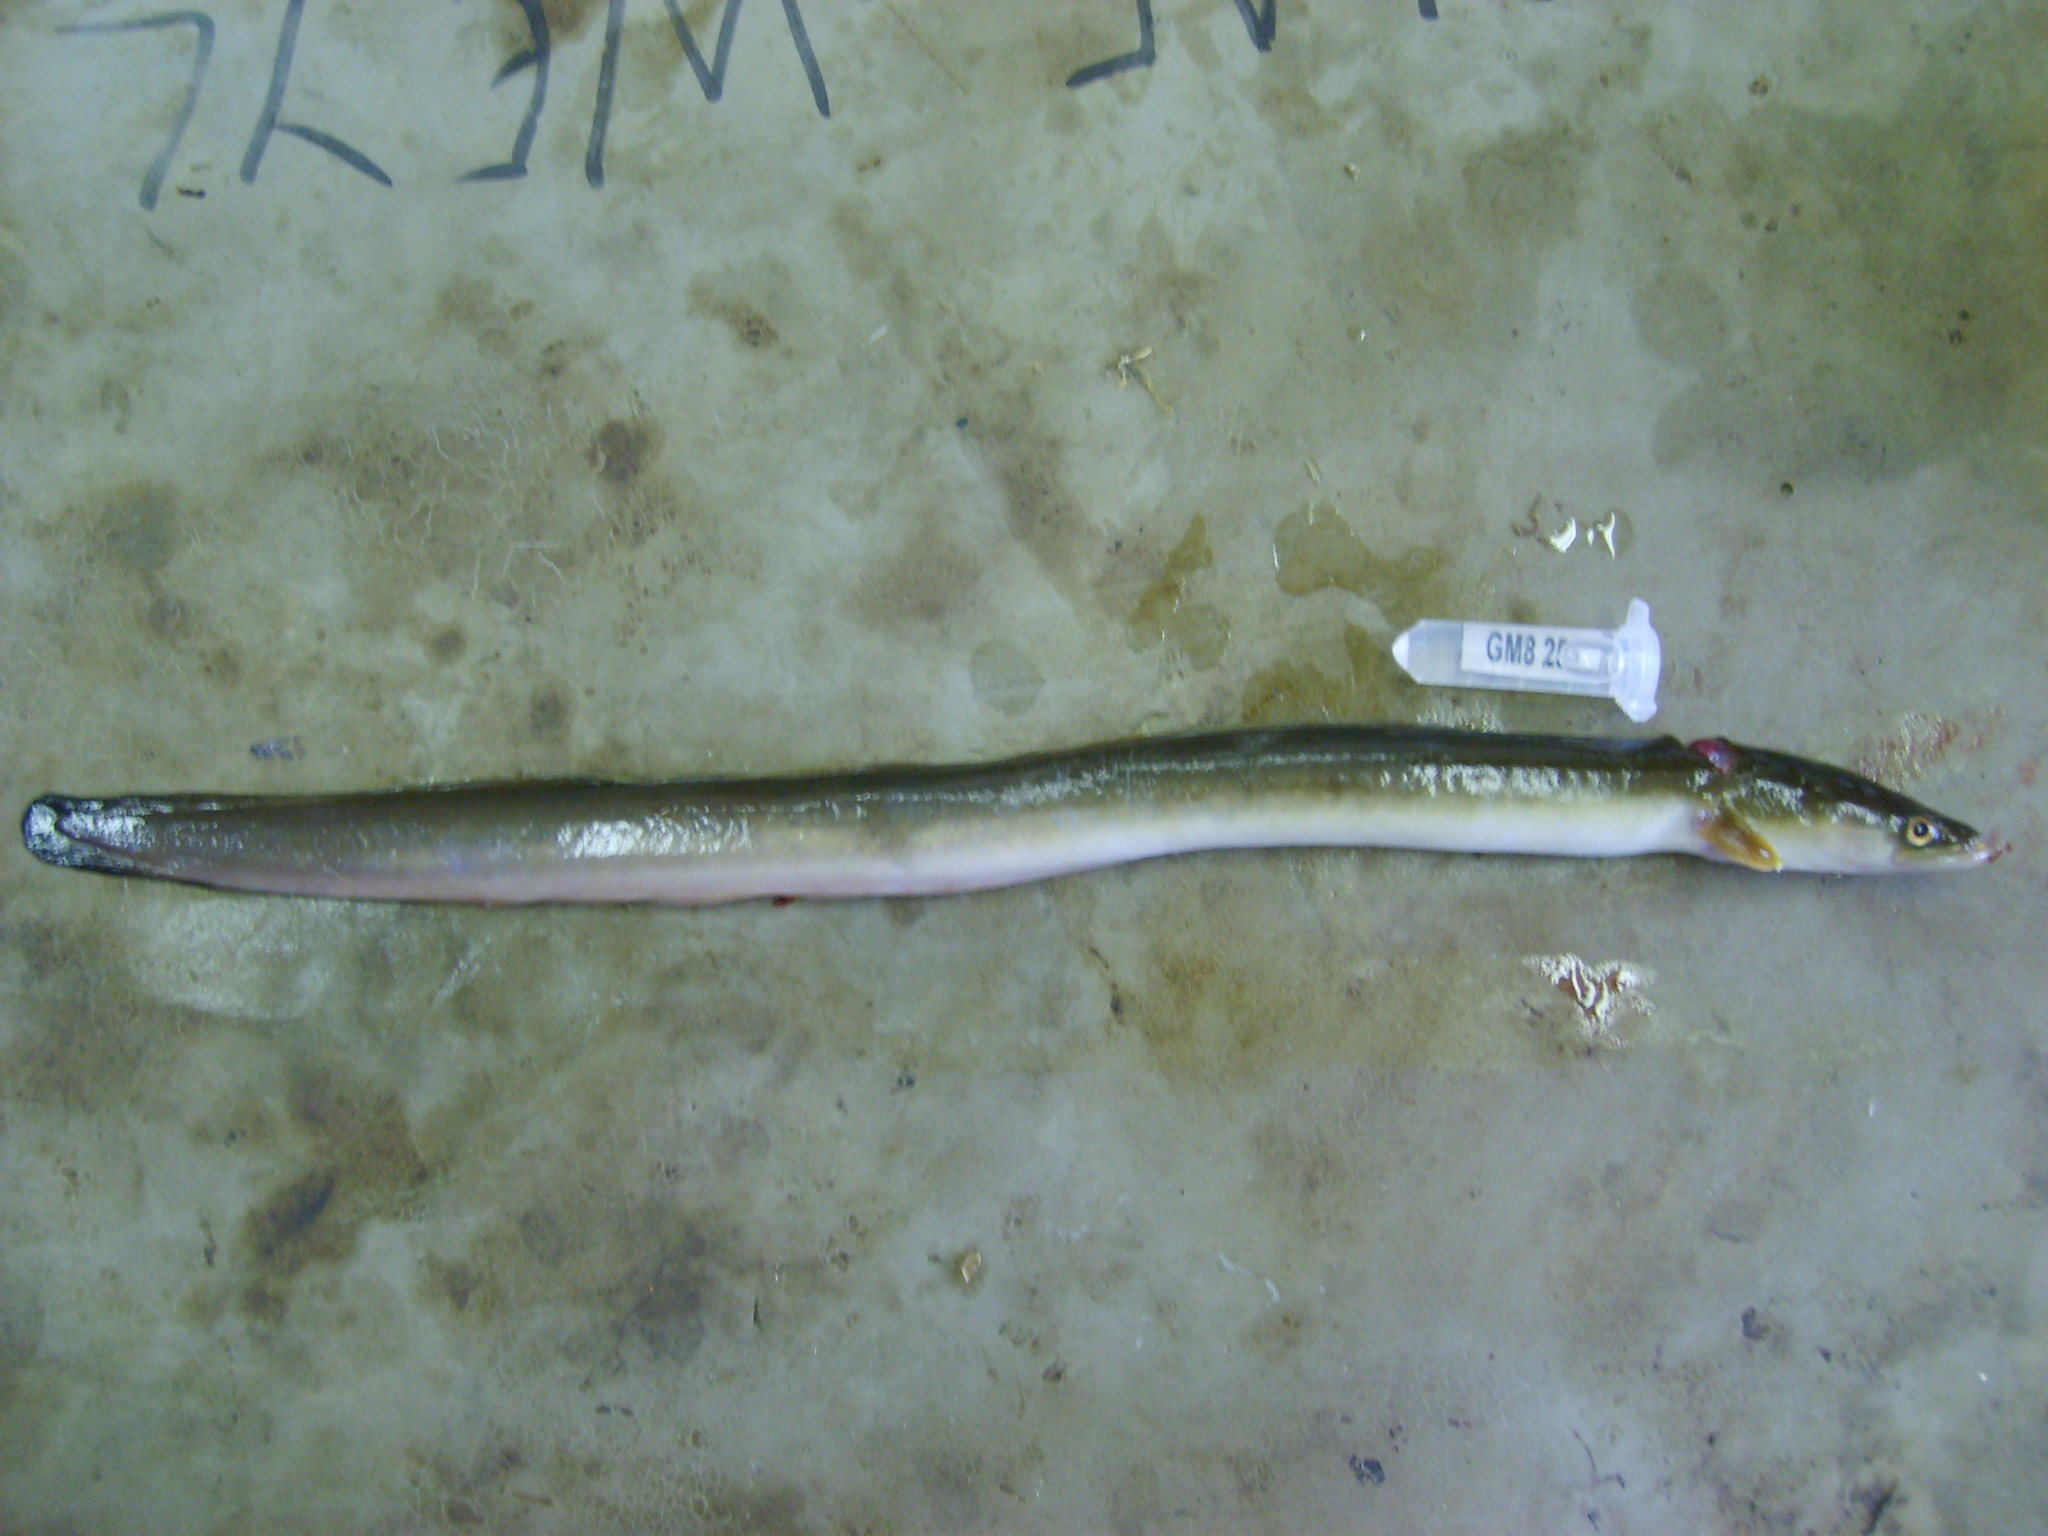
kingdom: Animalia
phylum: Chordata
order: Anguilliformes
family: Anguillidae
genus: Anguilla
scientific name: Anguilla mossambica
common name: African longfin eel
